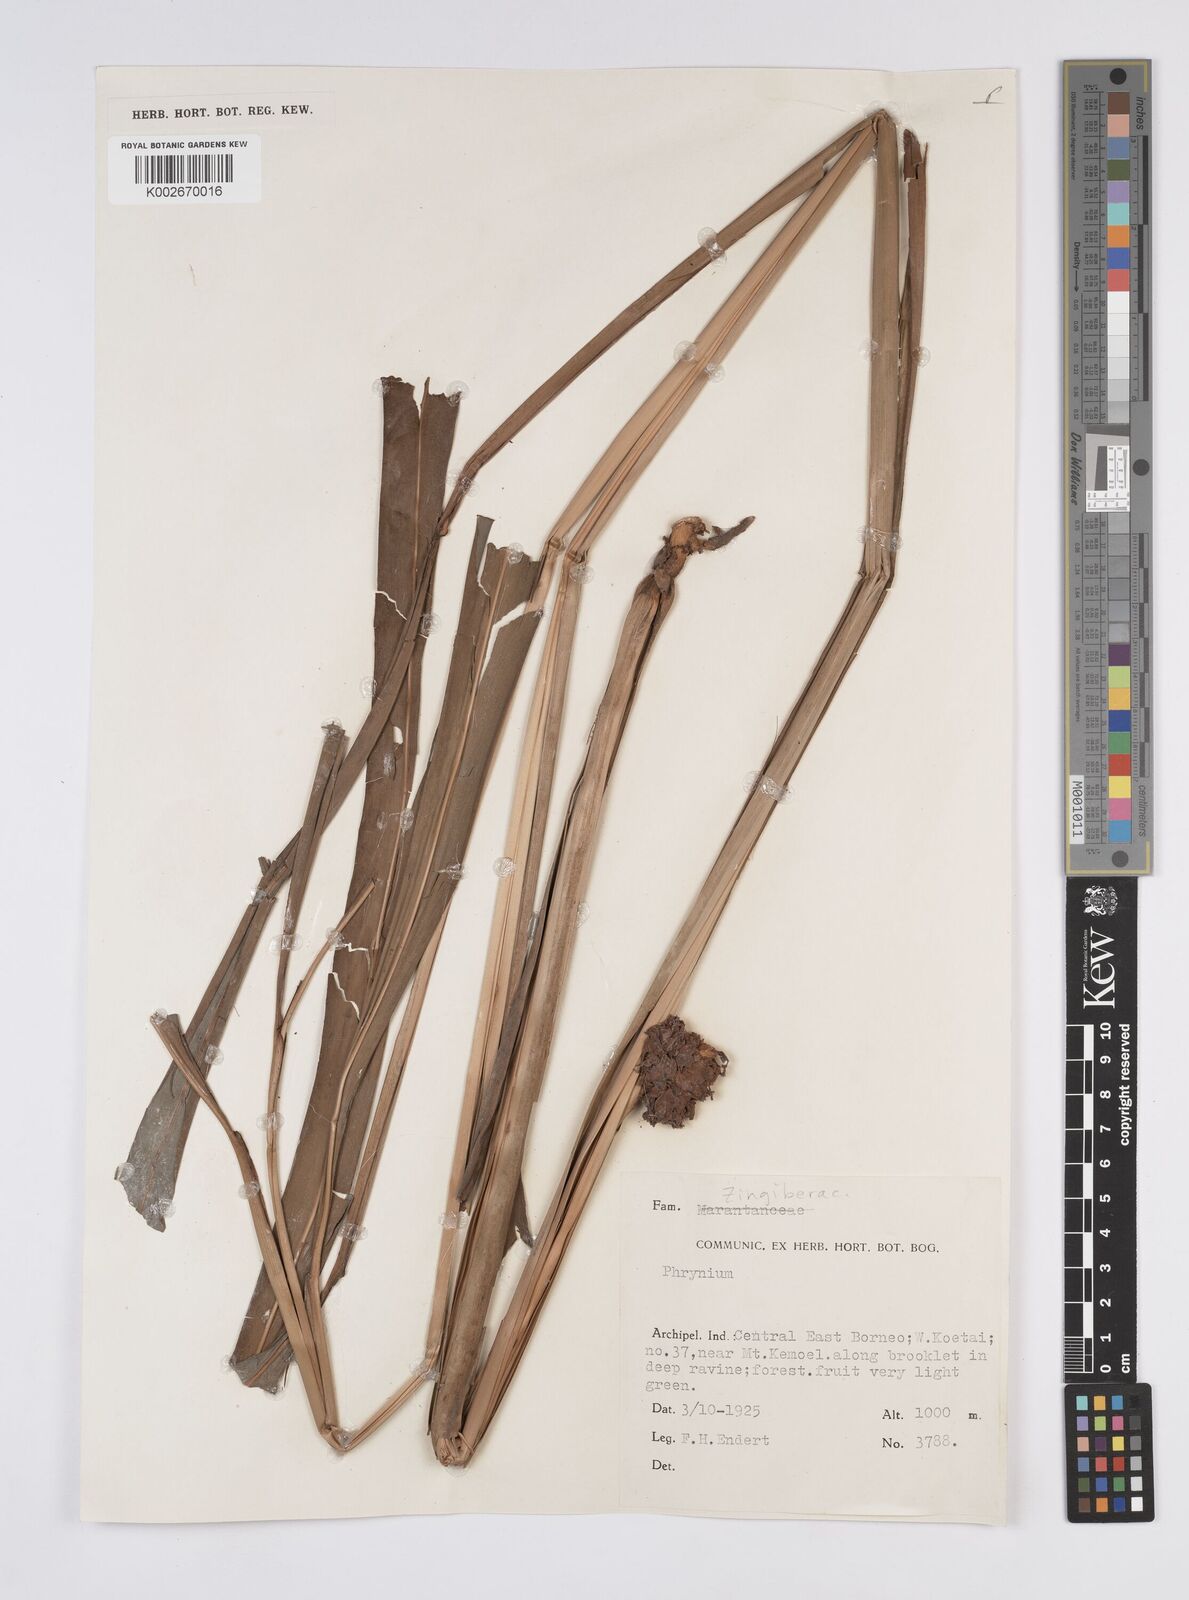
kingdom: Plantae
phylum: Tracheophyta
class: Liliopsida
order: Zingiberales
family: Zingiberaceae
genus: Plagiostachys
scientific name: Plagiostachys
